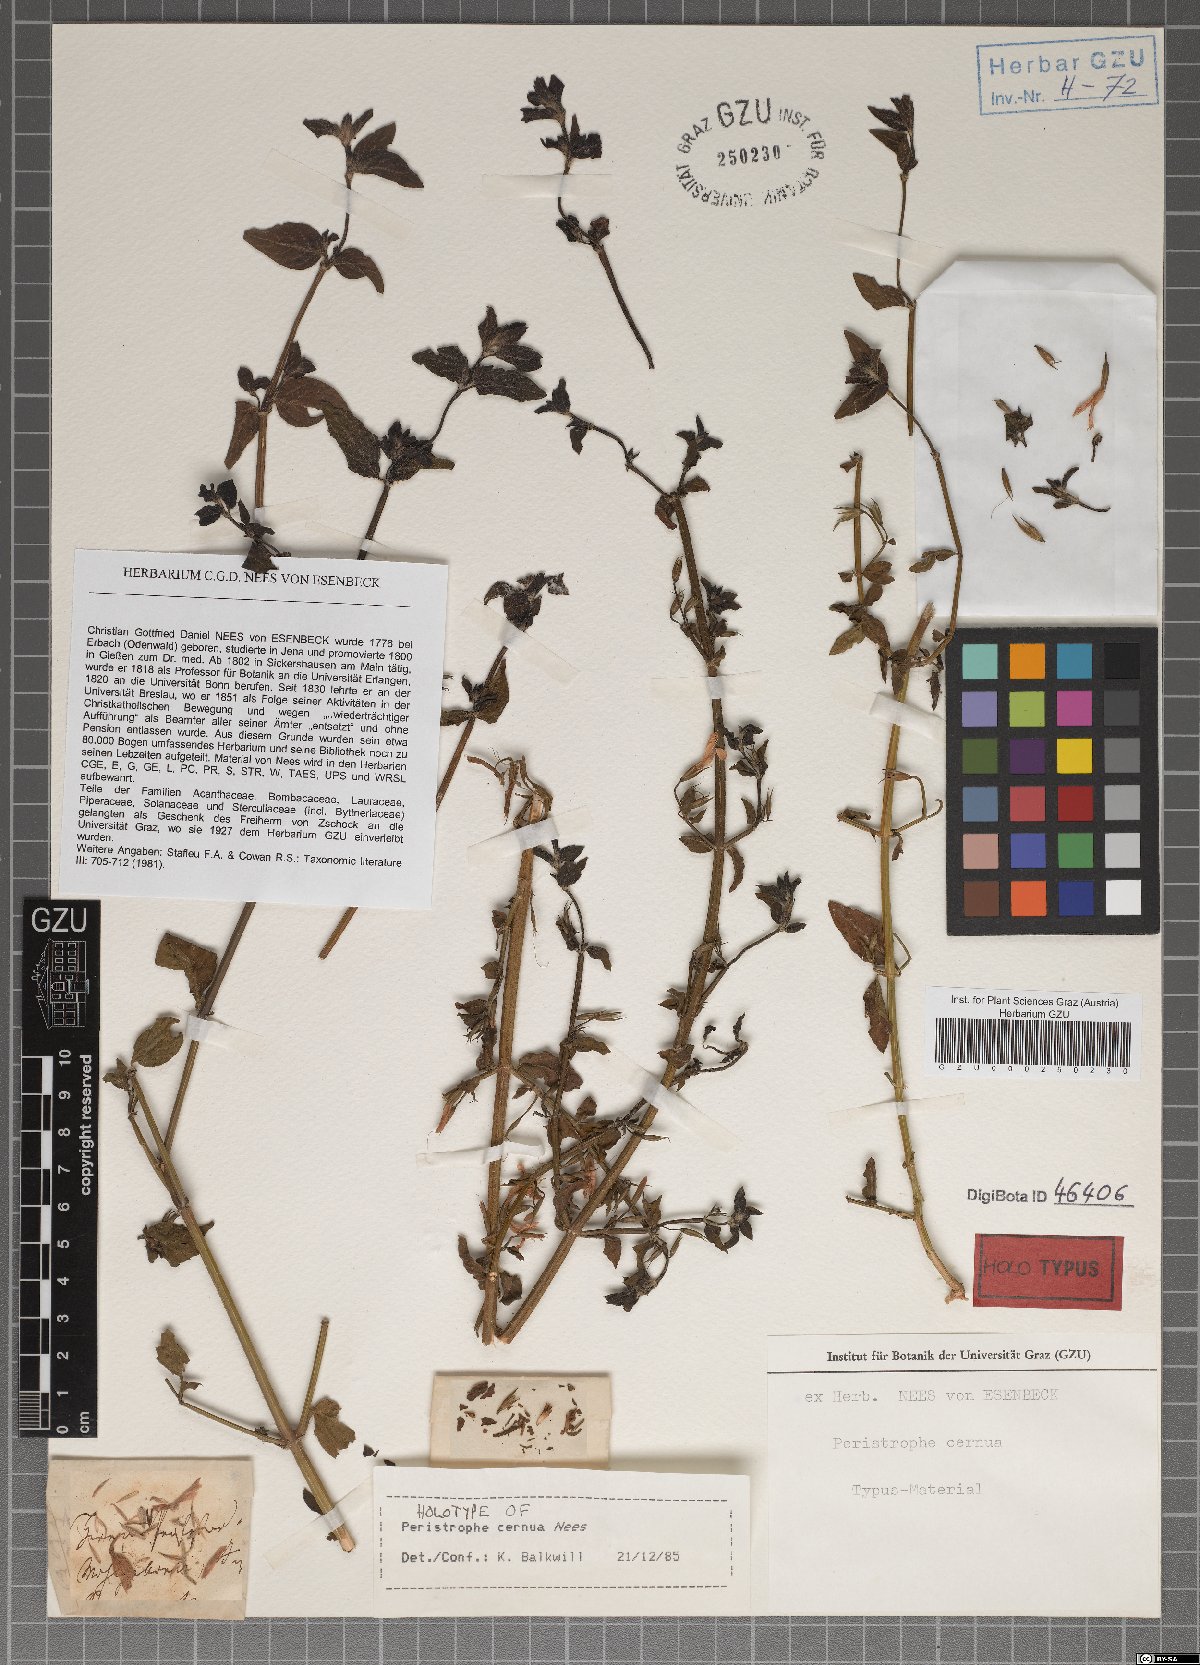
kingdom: Plantae
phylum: Tracheophyta
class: Magnoliopsida
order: Lamiales
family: Acanthaceae
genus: Dicliptera
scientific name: Dicliptera cernua
